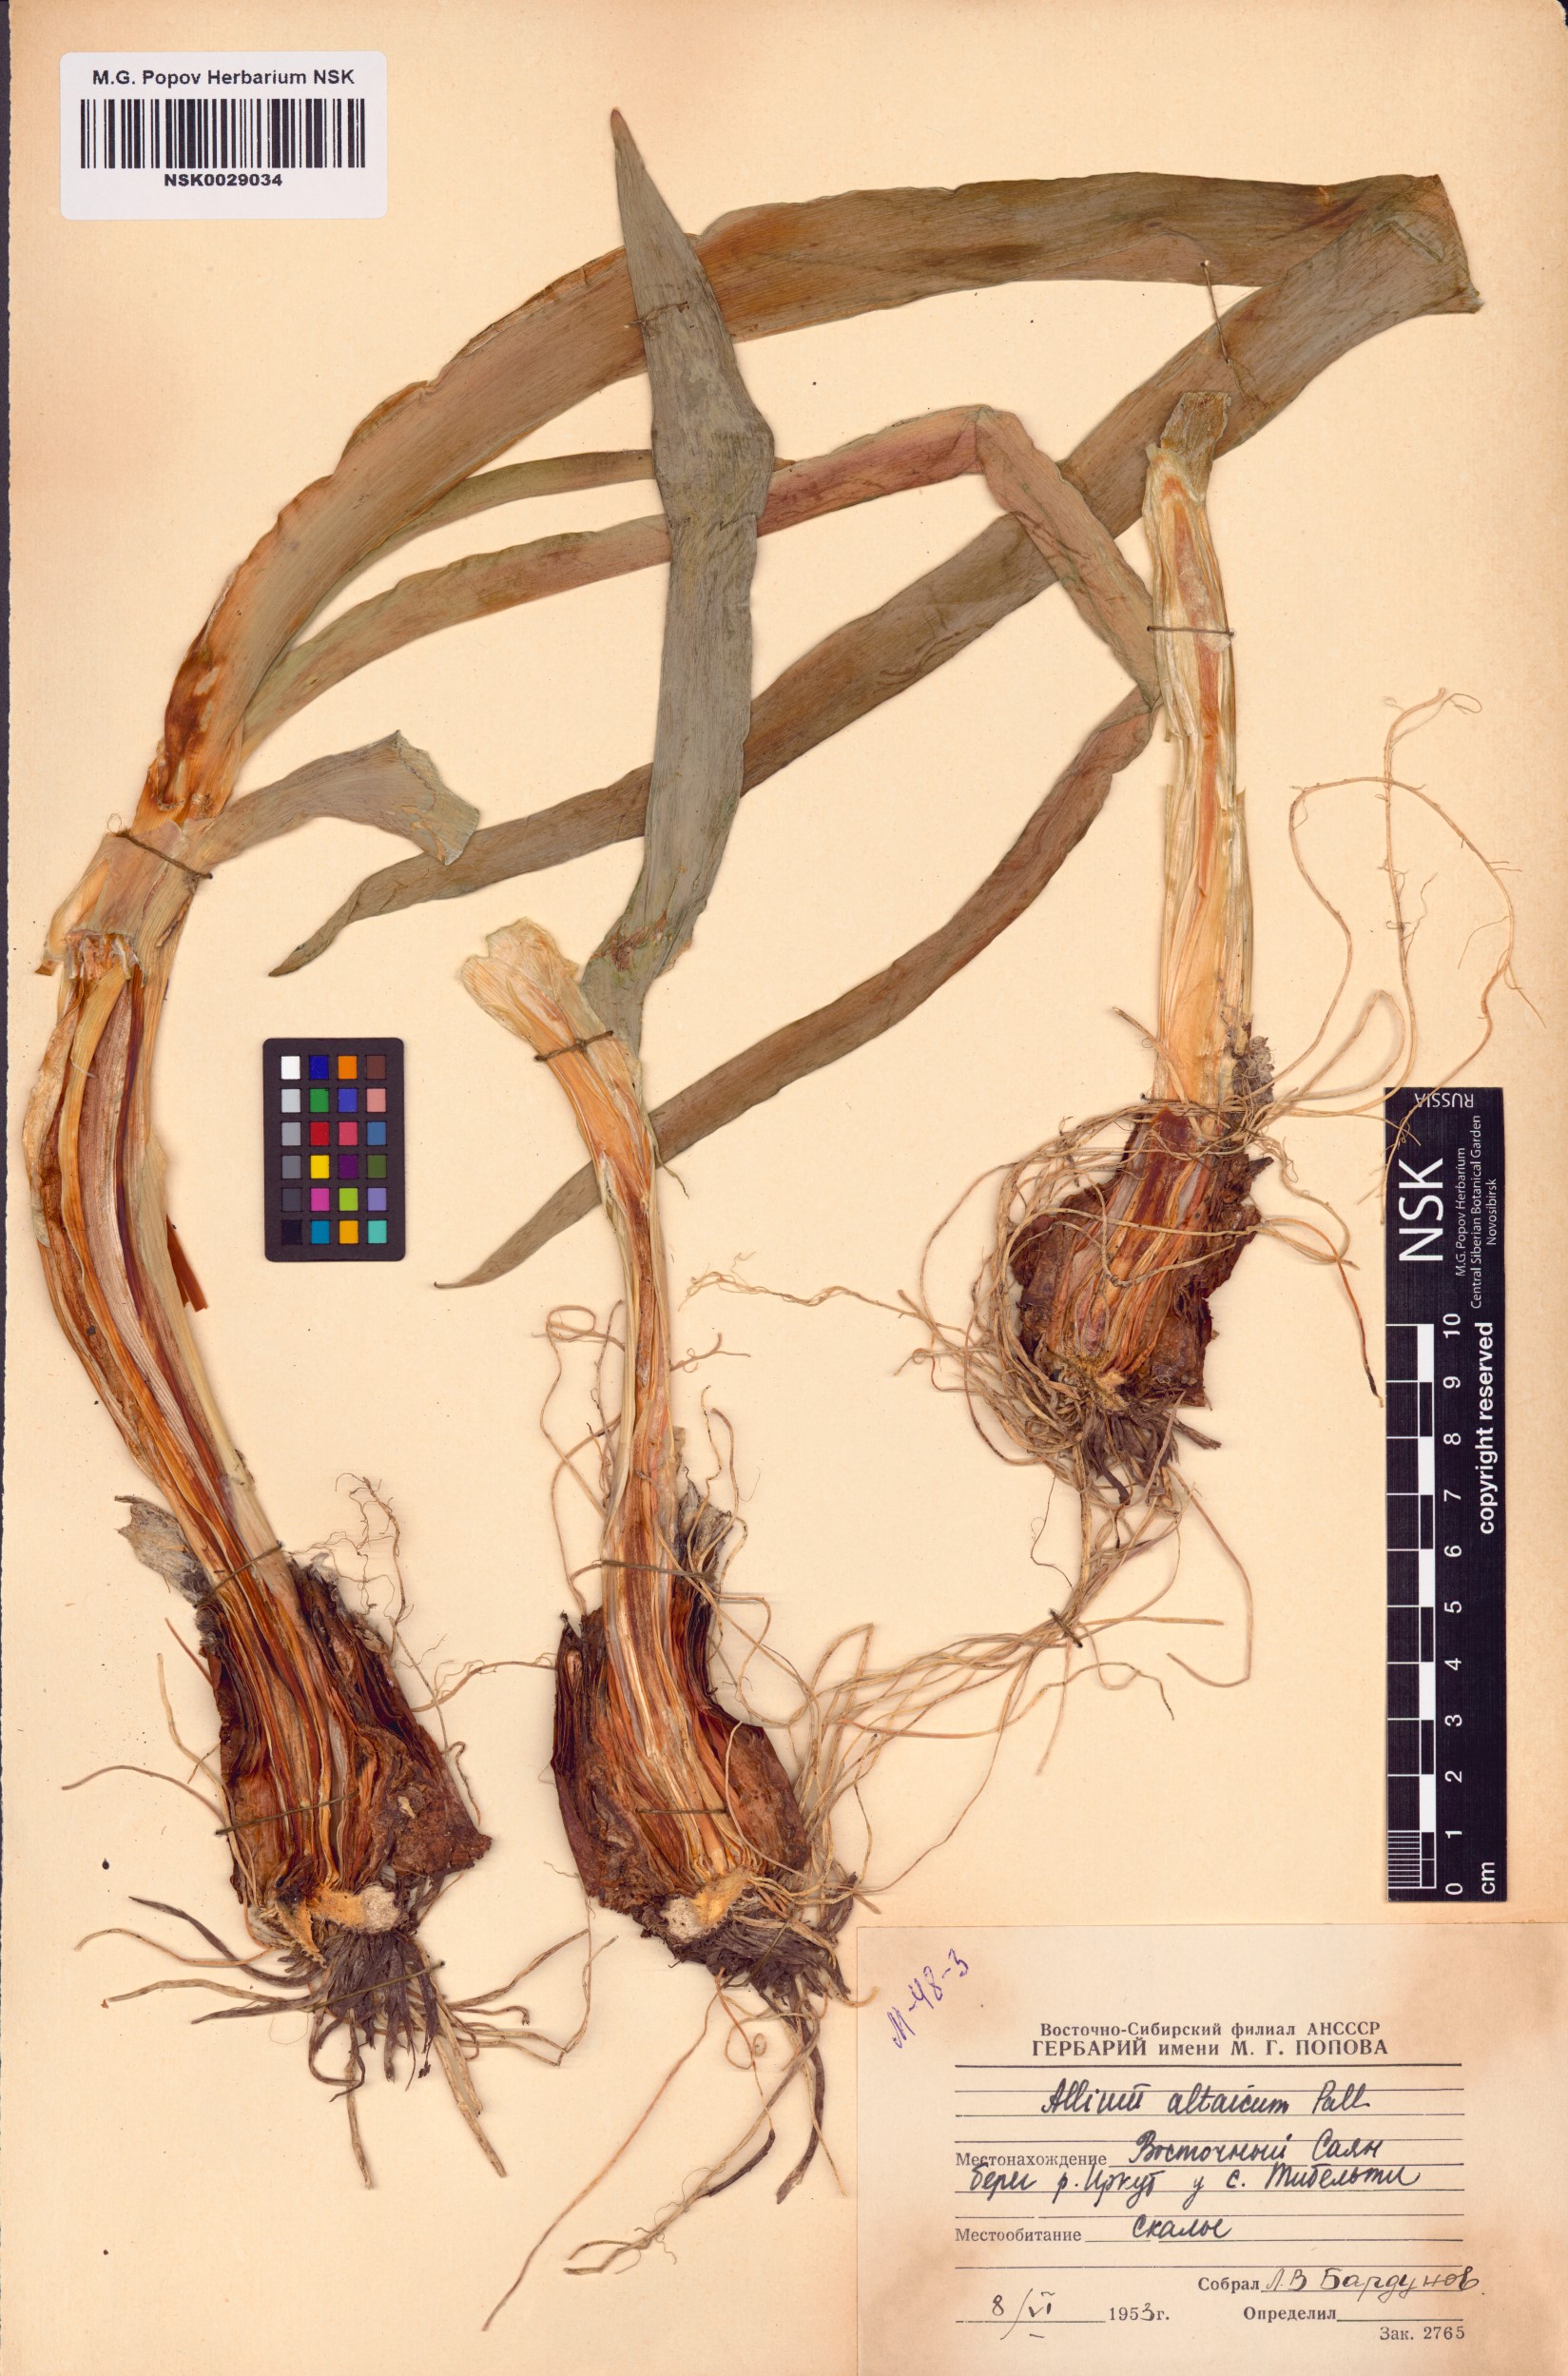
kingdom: Plantae
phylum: Tracheophyta
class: Liliopsida
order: Asparagales
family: Amaryllidaceae
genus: Allium
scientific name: Allium altaicum
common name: Altai onion
